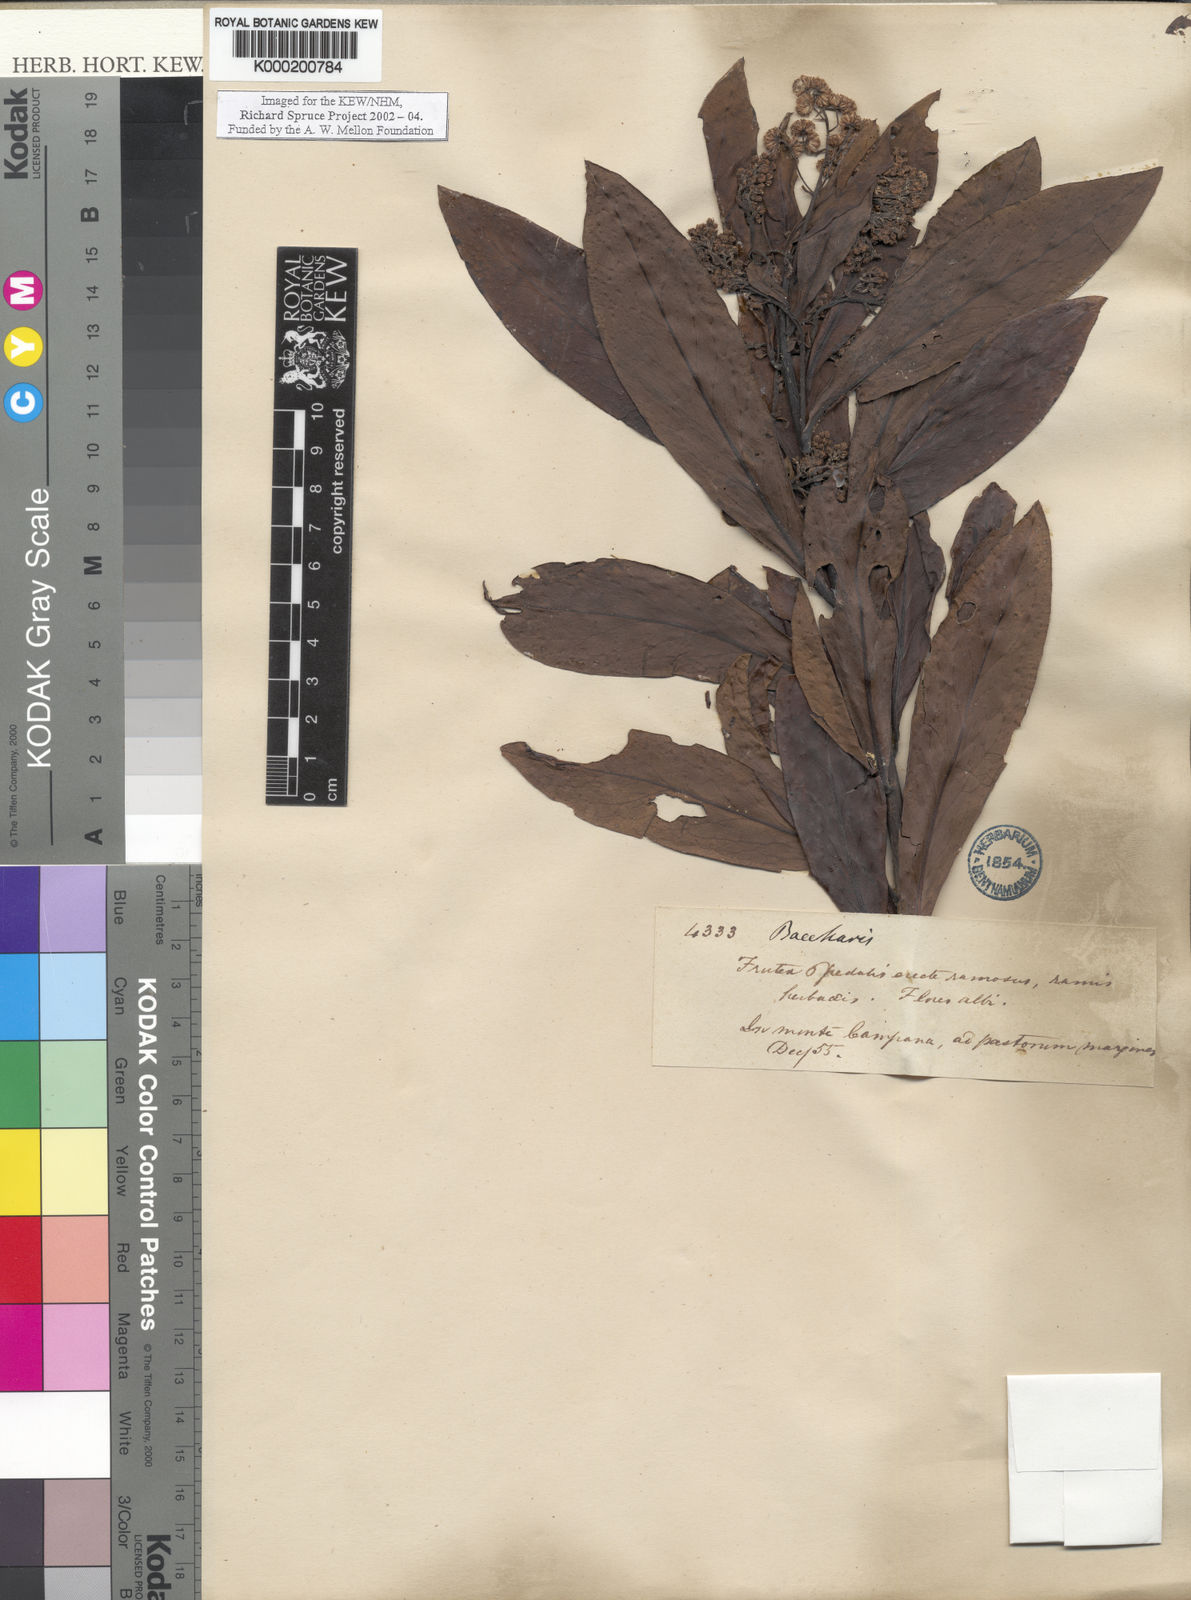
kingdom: Plantae
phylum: Tracheophyta
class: Magnoliopsida
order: Asterales
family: Asteraceae
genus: Baccharis
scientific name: Baccharis oblongifolia
